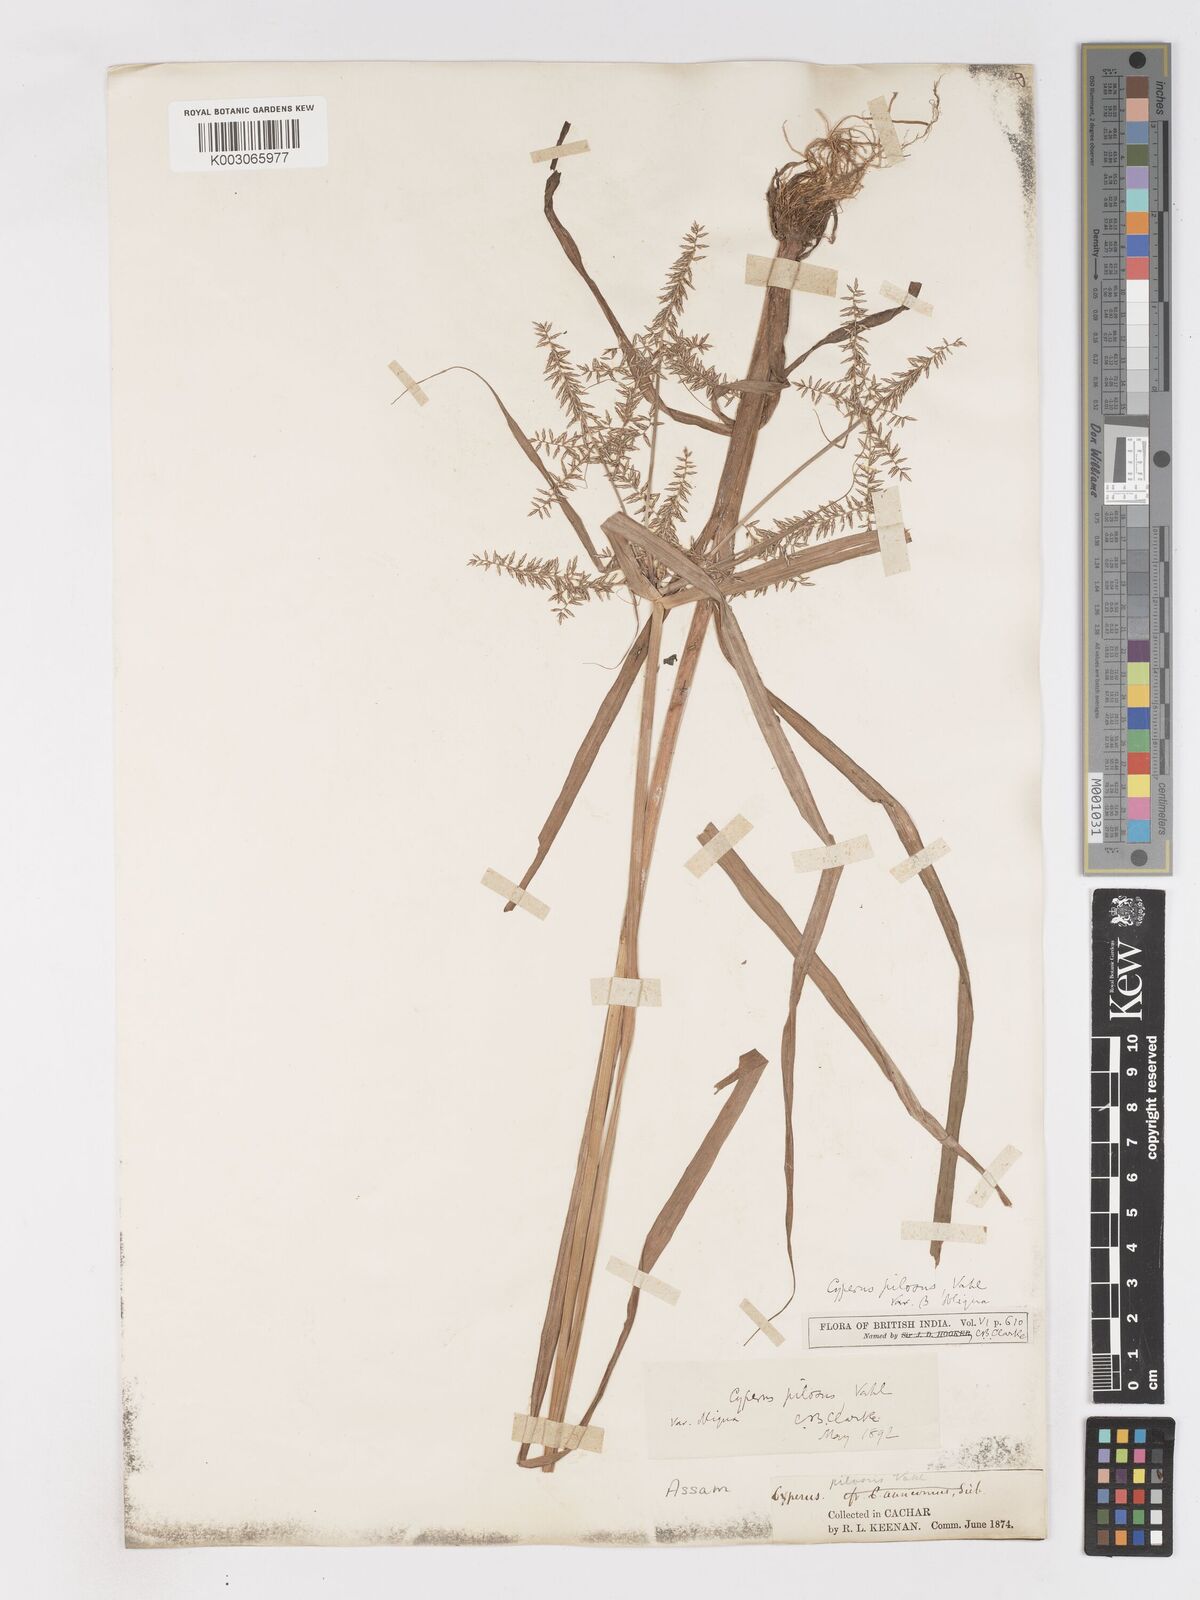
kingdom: Plantae
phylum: Tracheophyta
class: Liliopsida
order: Poales
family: Cyperaceae
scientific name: Cyperaceae
